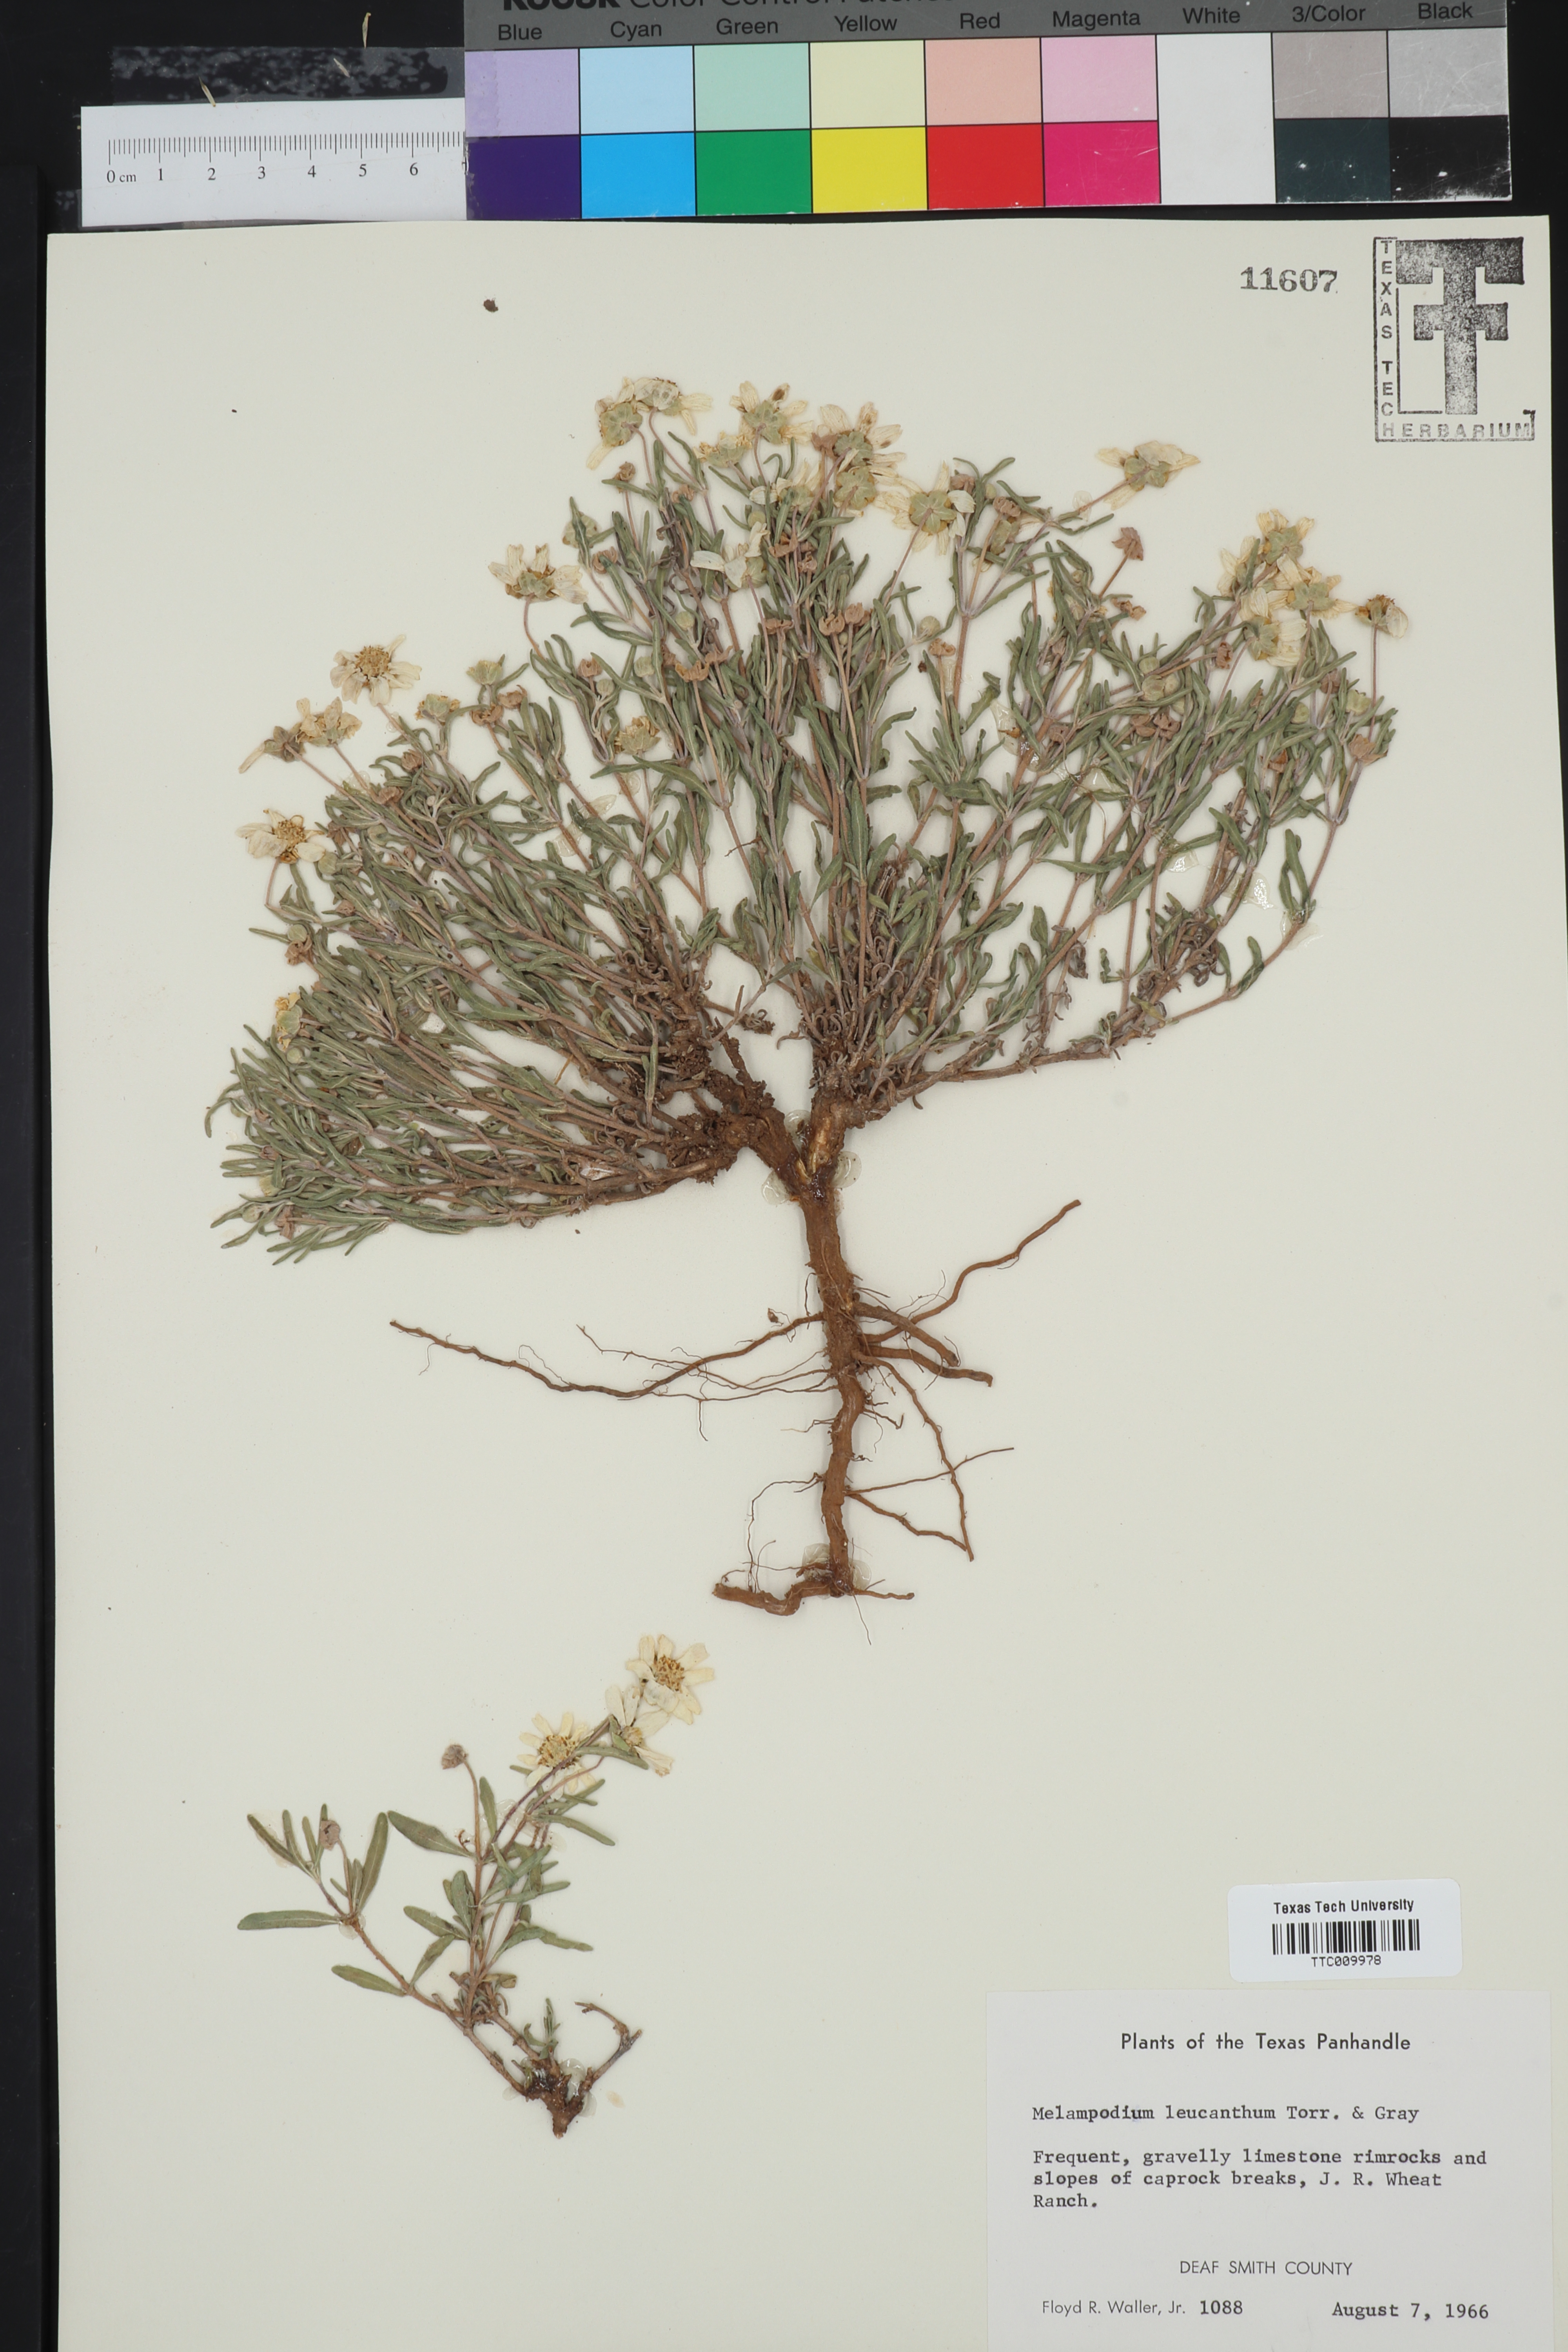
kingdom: Plantae
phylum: Tracheophyta
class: Magnoliopsida
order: Asterales
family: Asteraceae
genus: Melampodium
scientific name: Melampodium leucanthum
